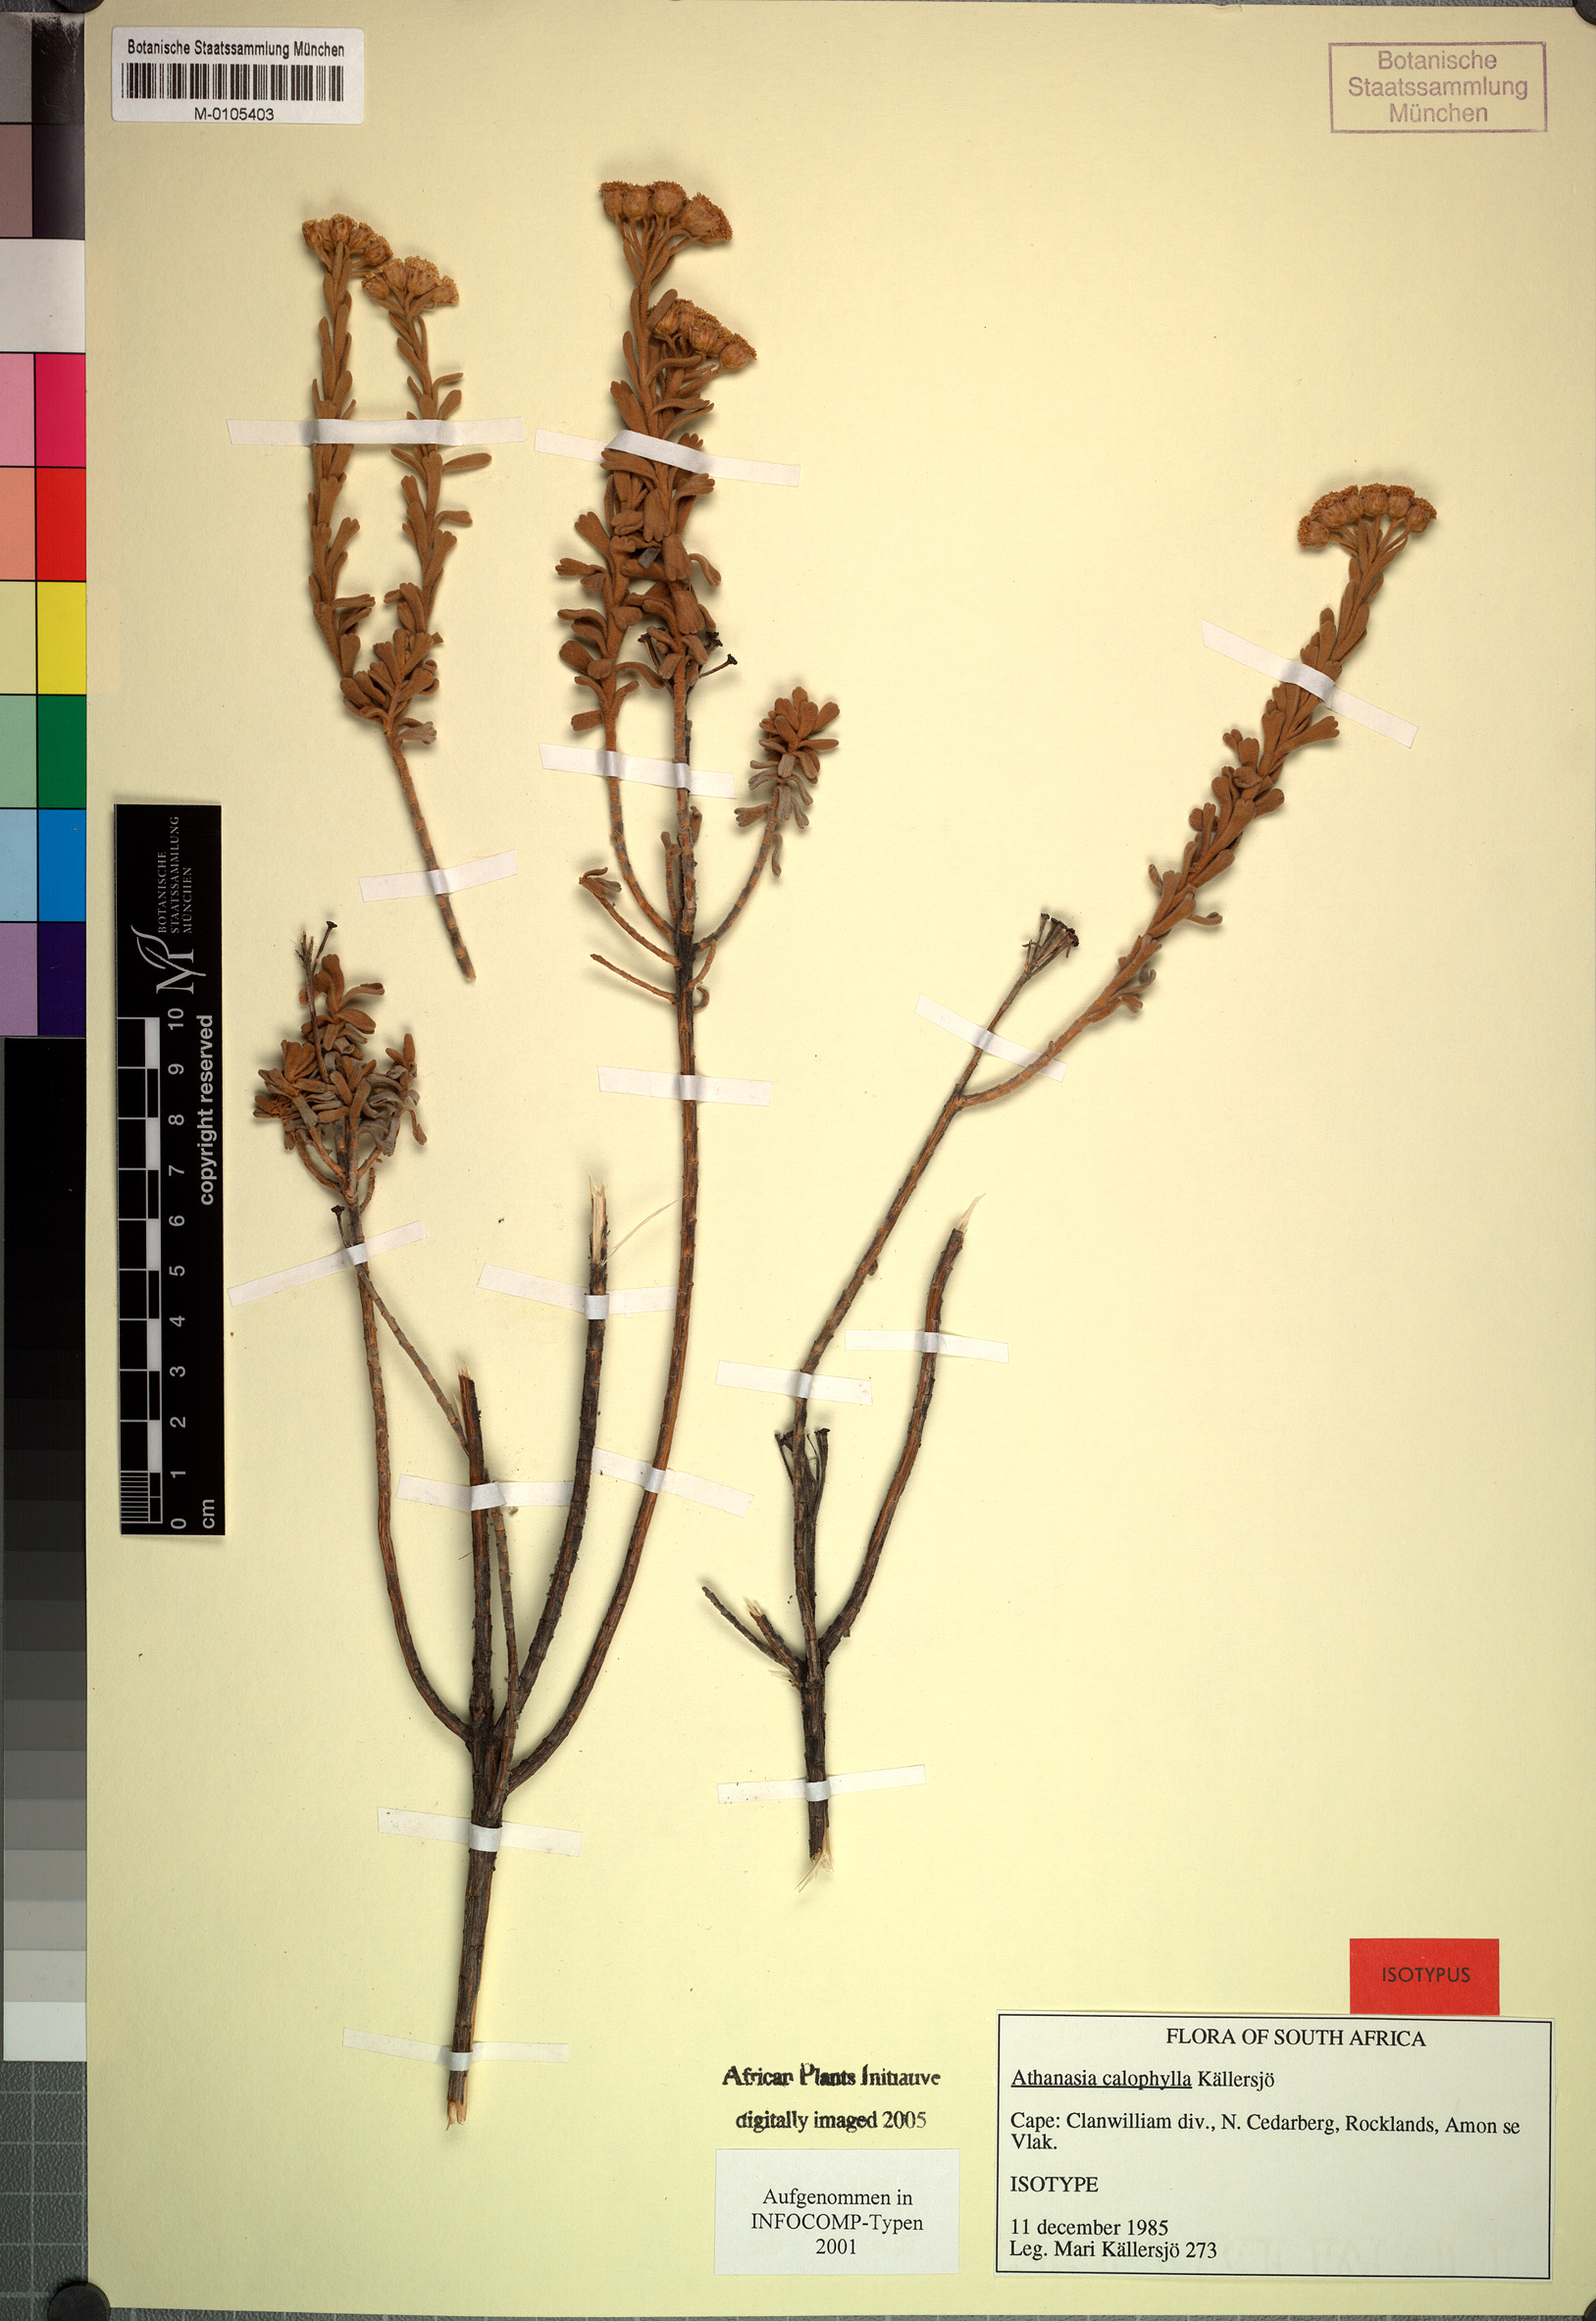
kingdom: Plantae
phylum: Tracheophyta
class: Magnoliopsida
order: Asterales
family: Asteraceae
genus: Athanasia
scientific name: Athanasia calophylla
